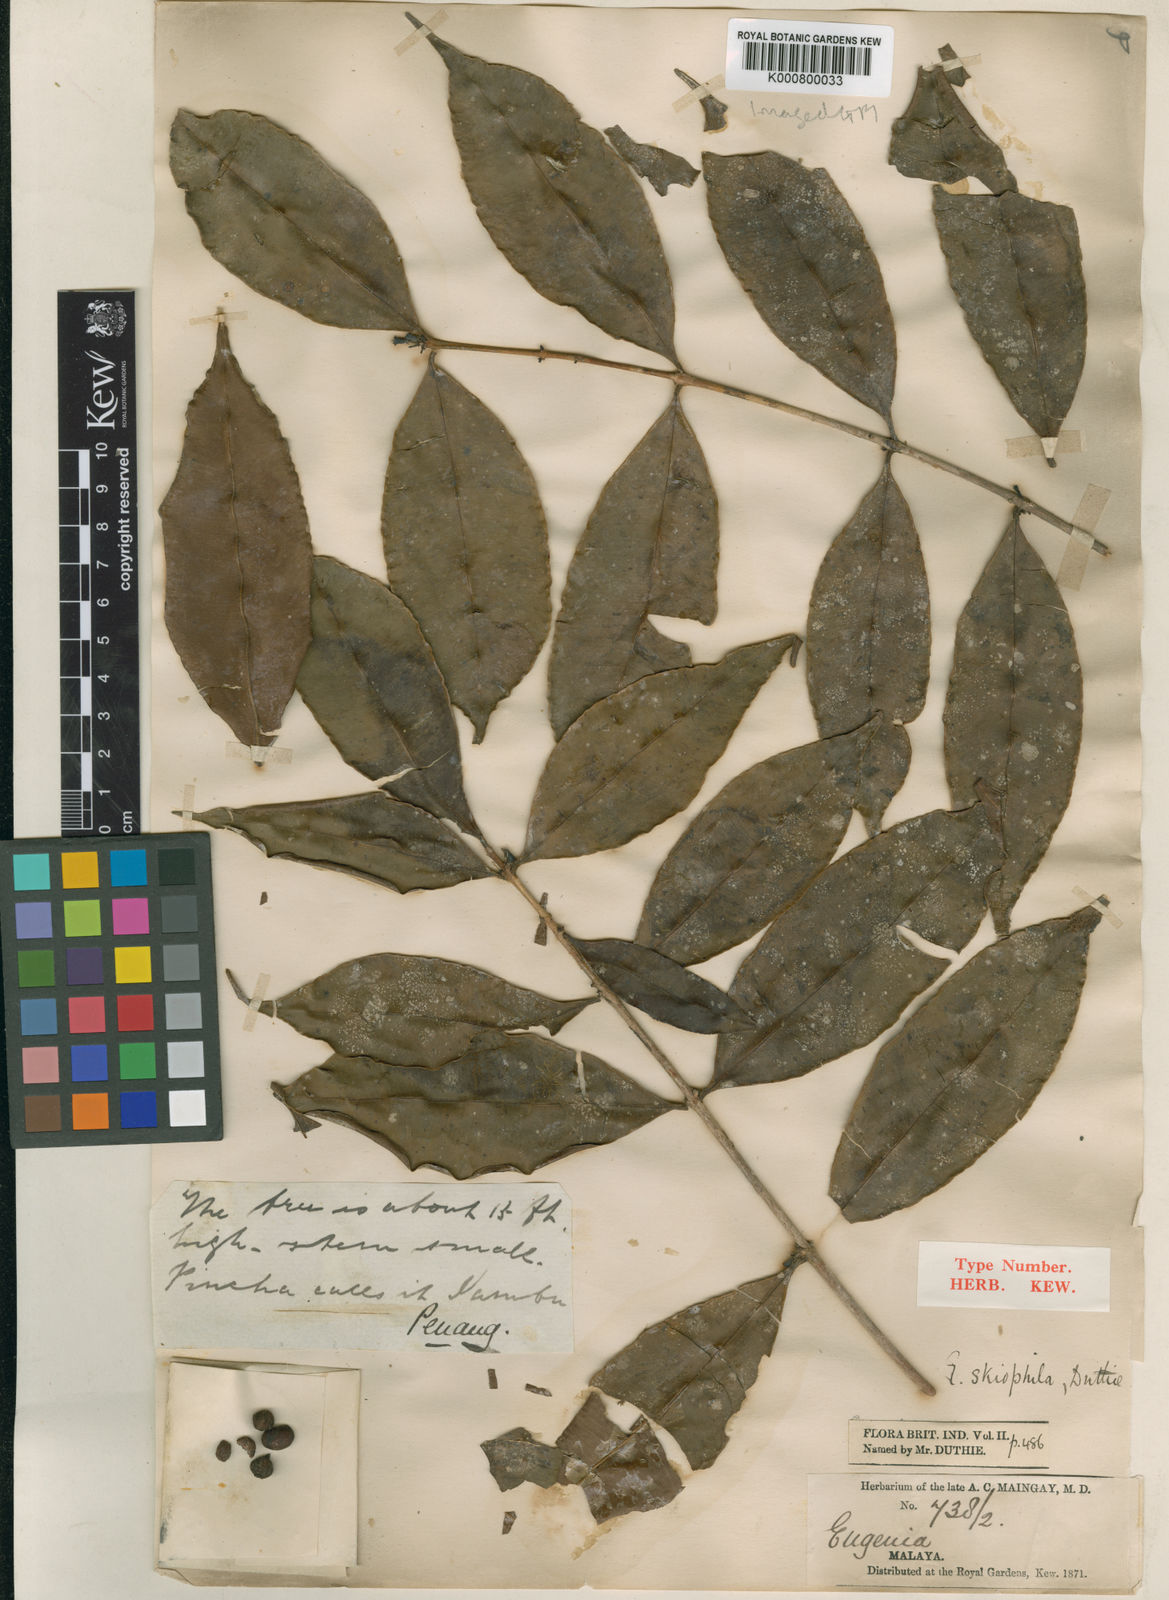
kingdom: Plantae
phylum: Tracheophyta
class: Magnoliopsida
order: Myrtales
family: Myrtaceae
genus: Syzygium
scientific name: Syzygium skiophilum
